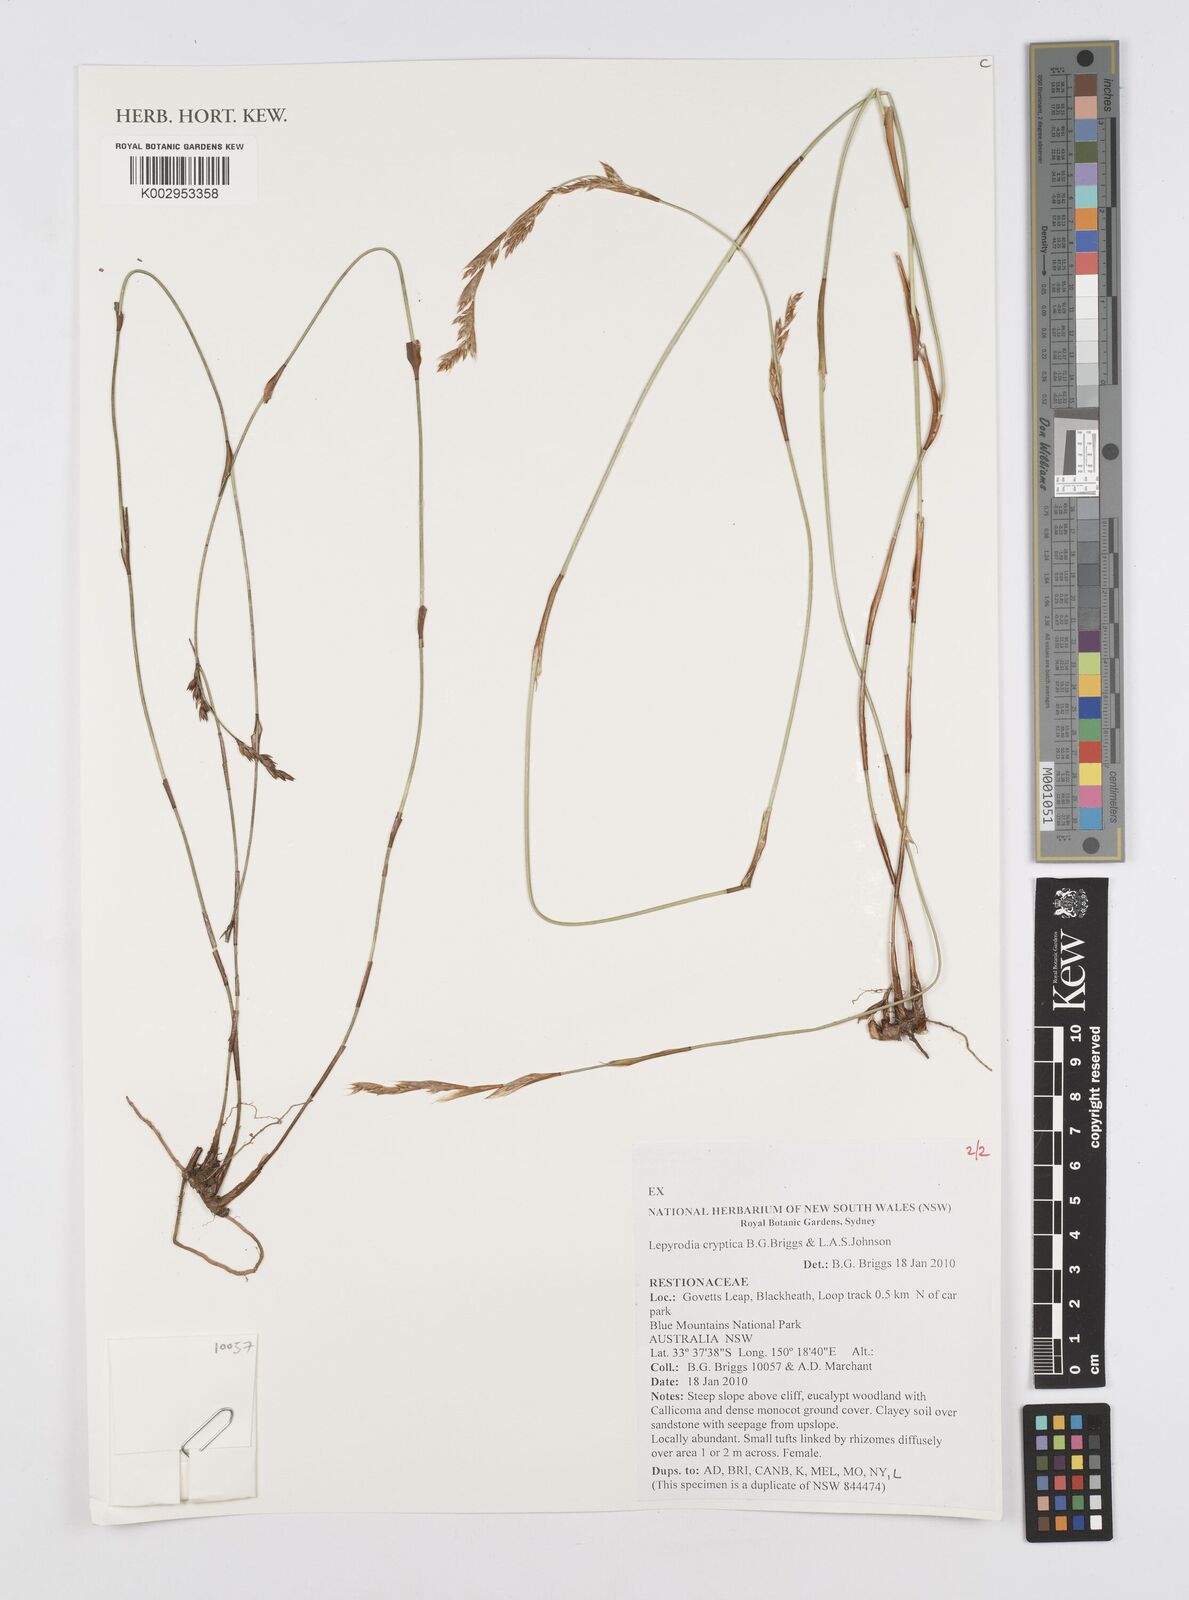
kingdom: Plantae
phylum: Tracheophyta
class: Liliopsida
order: Poales
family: Restionaceae
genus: Lepyrodia
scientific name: Lepyrodia cryptica
